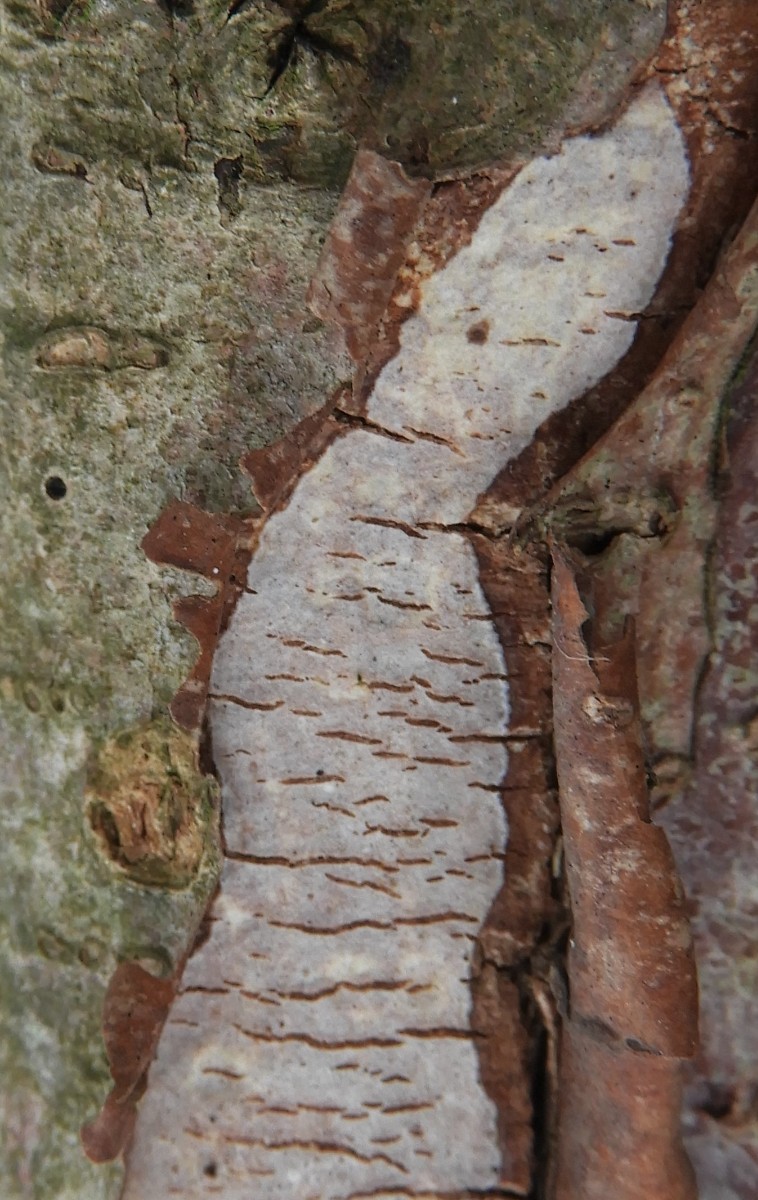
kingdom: Fungi
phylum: Basidiomycota
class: Agaricomycetes
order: Corticiales
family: Vuilleminiaceae
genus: Vuilleminia
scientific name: Vuilleminia cystidiata
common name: tjørne-barksprænger
